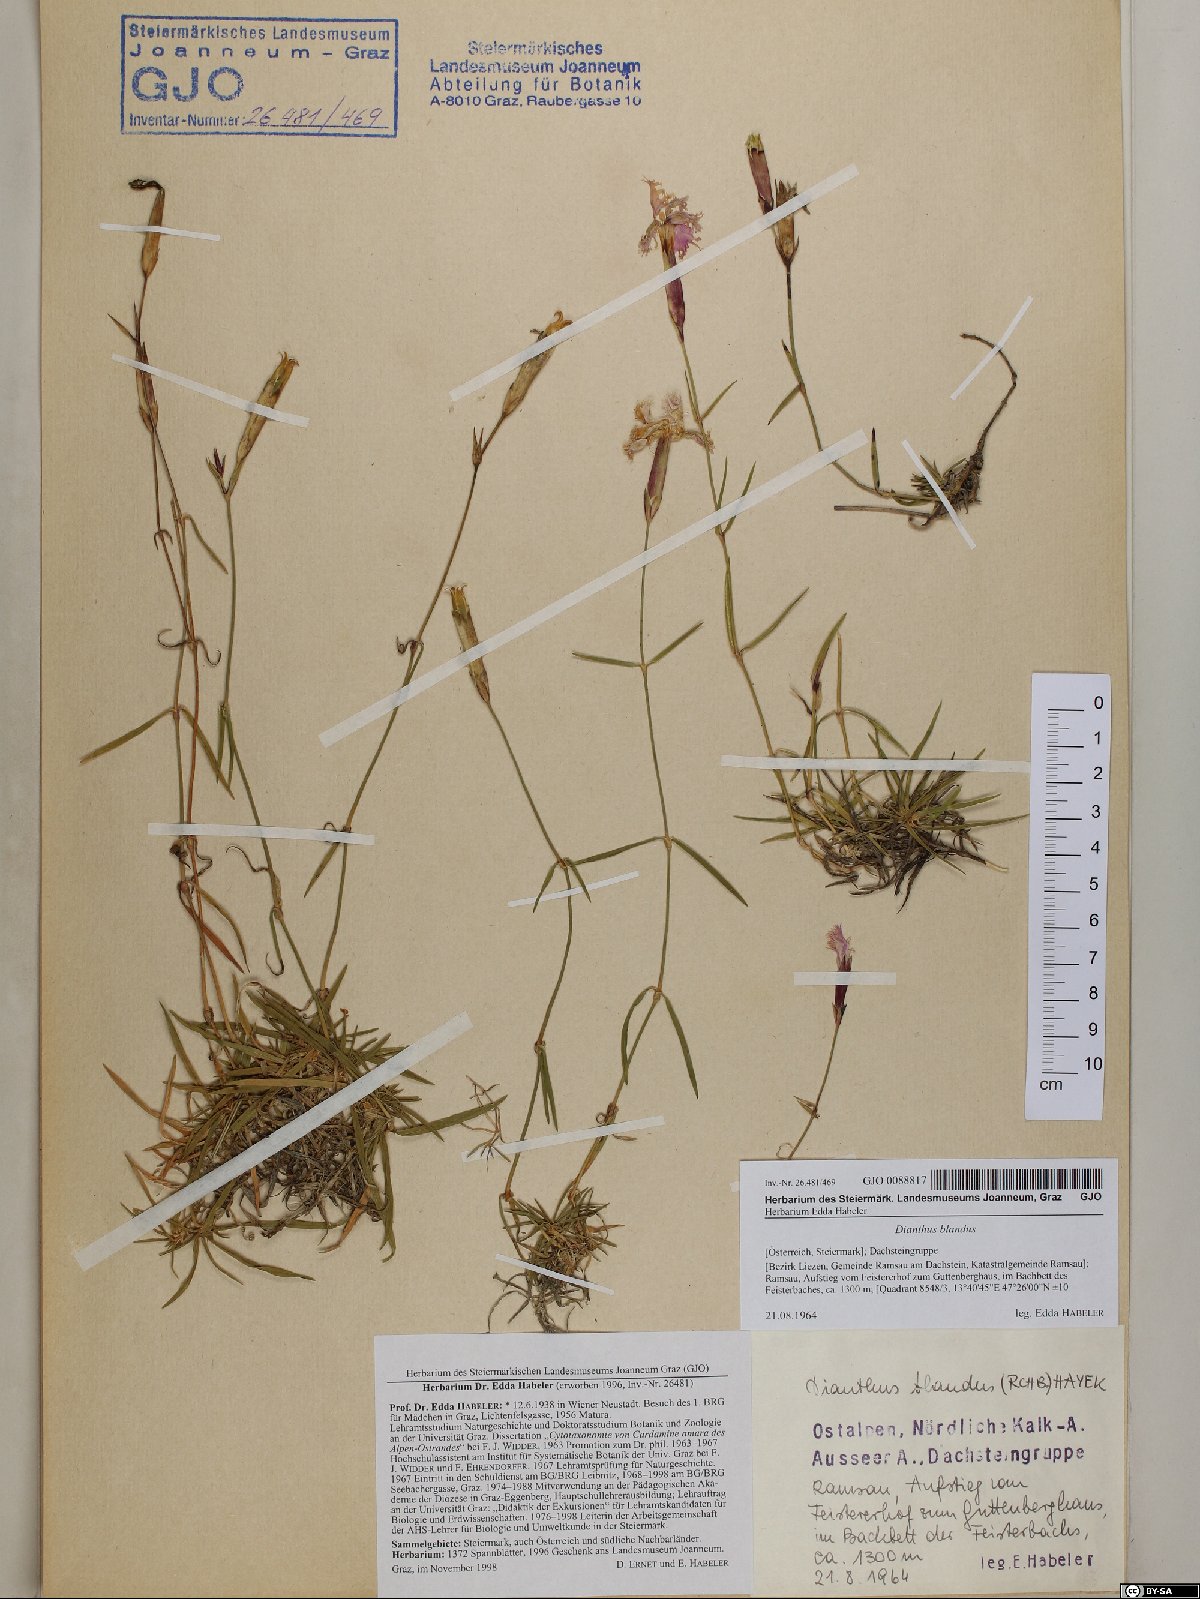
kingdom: Plantae
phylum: Tracheophyta
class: Magnoliopsida
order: Caryophyllales
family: Caryophyllaceae
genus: Dianthus
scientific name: Dianthus plumarius
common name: Pink
